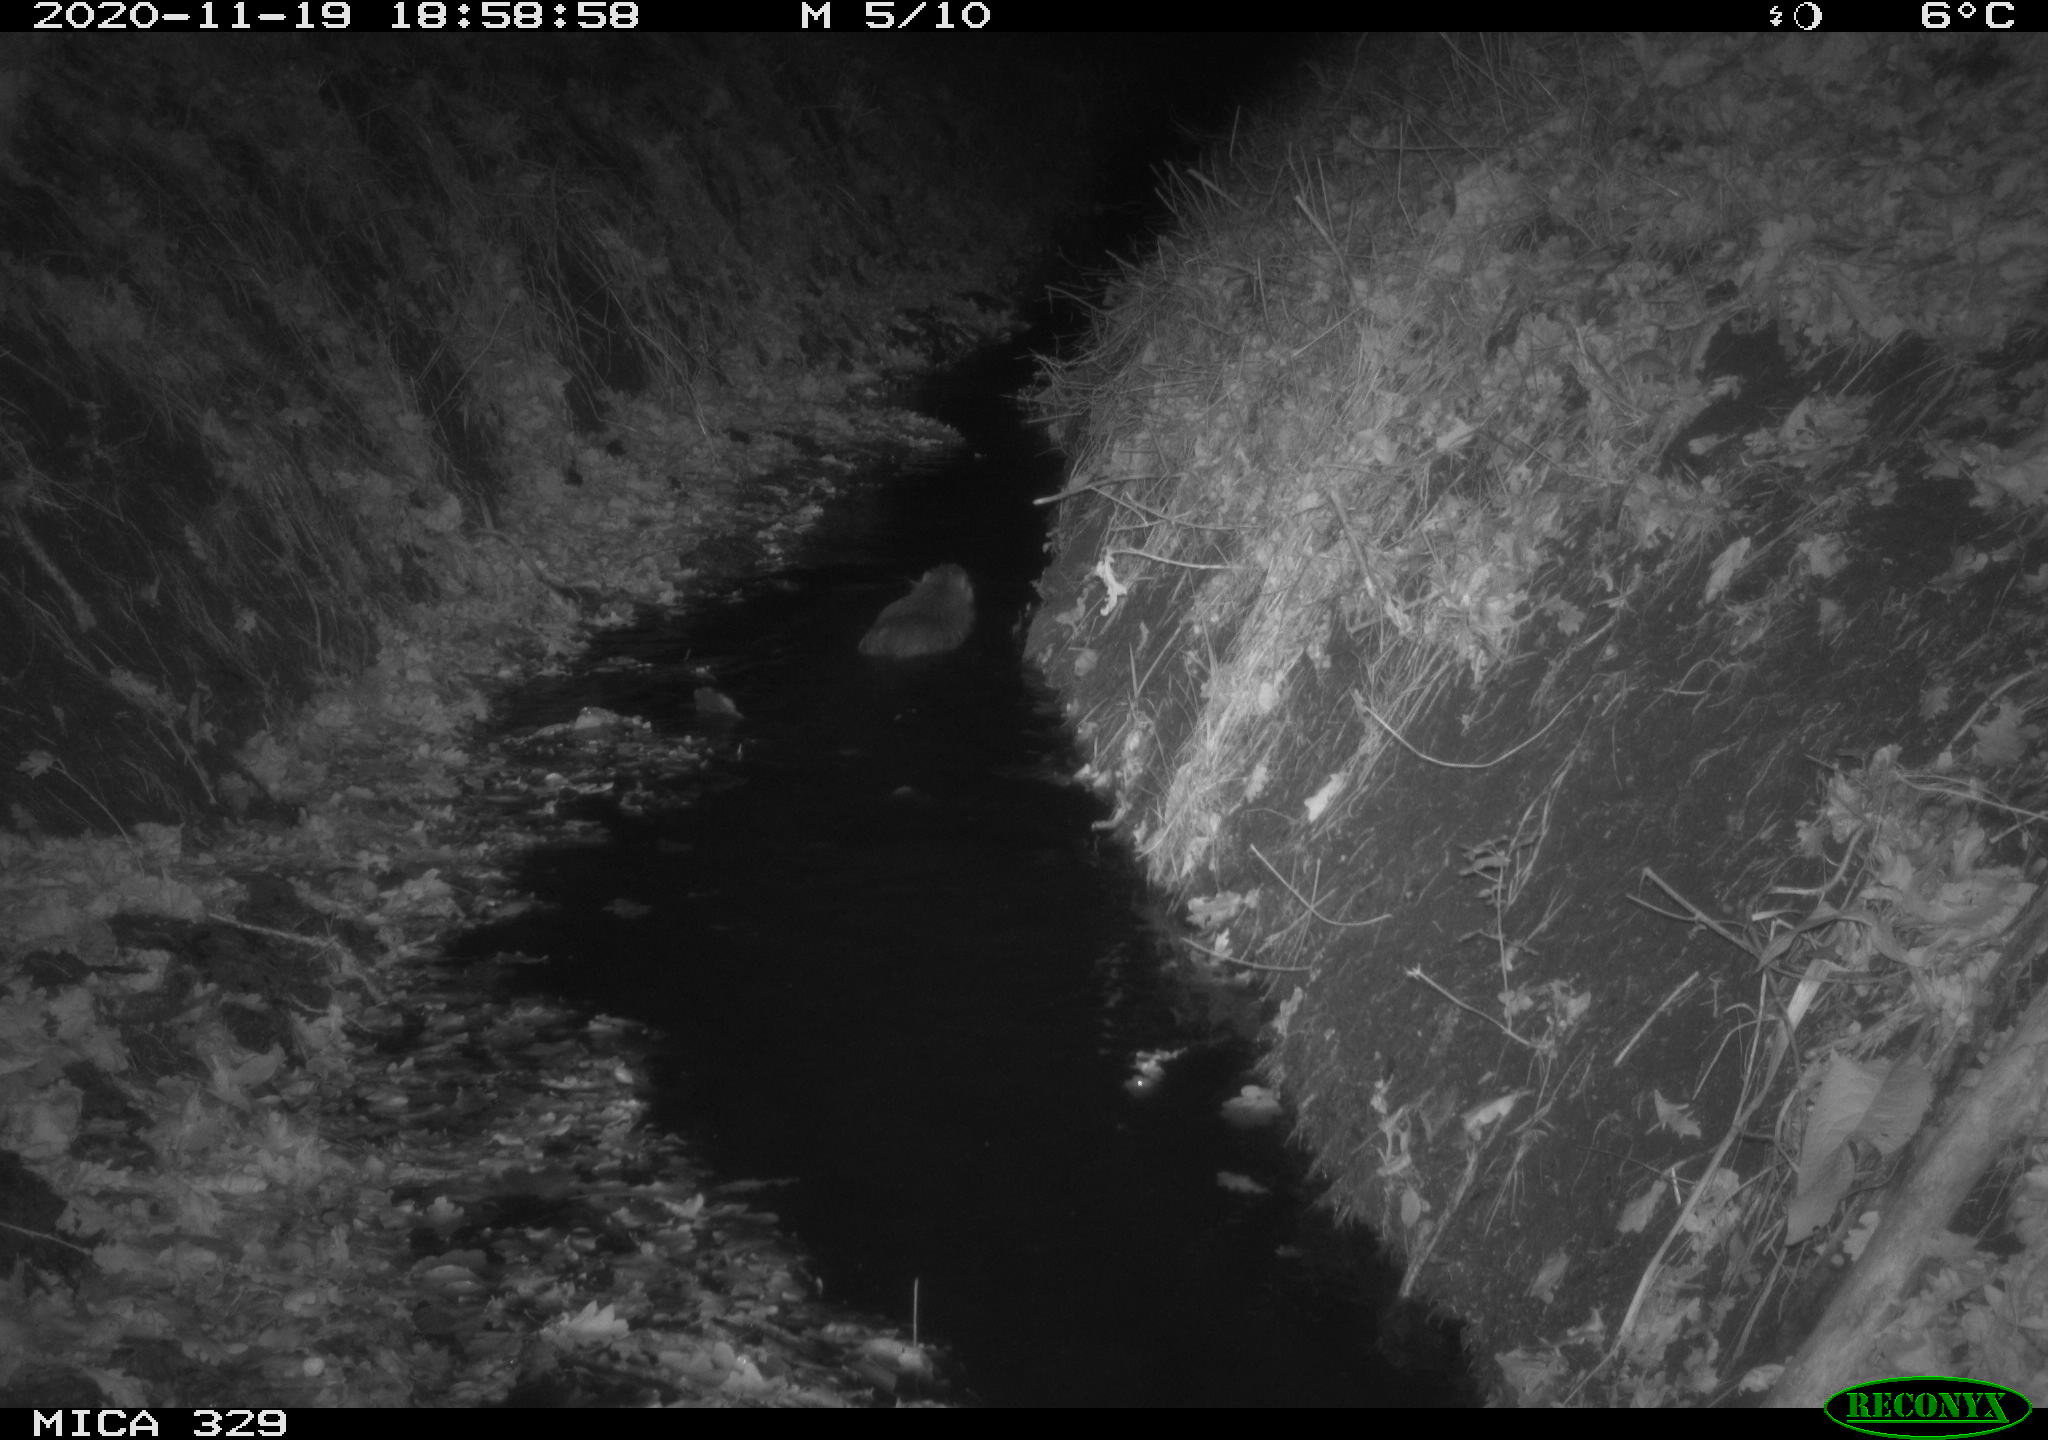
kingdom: Animalia
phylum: Chordata
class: Mammalia
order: Rodentia
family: Myocastoridae
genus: Myocastor
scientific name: Myocastor coypus
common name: Coypu
